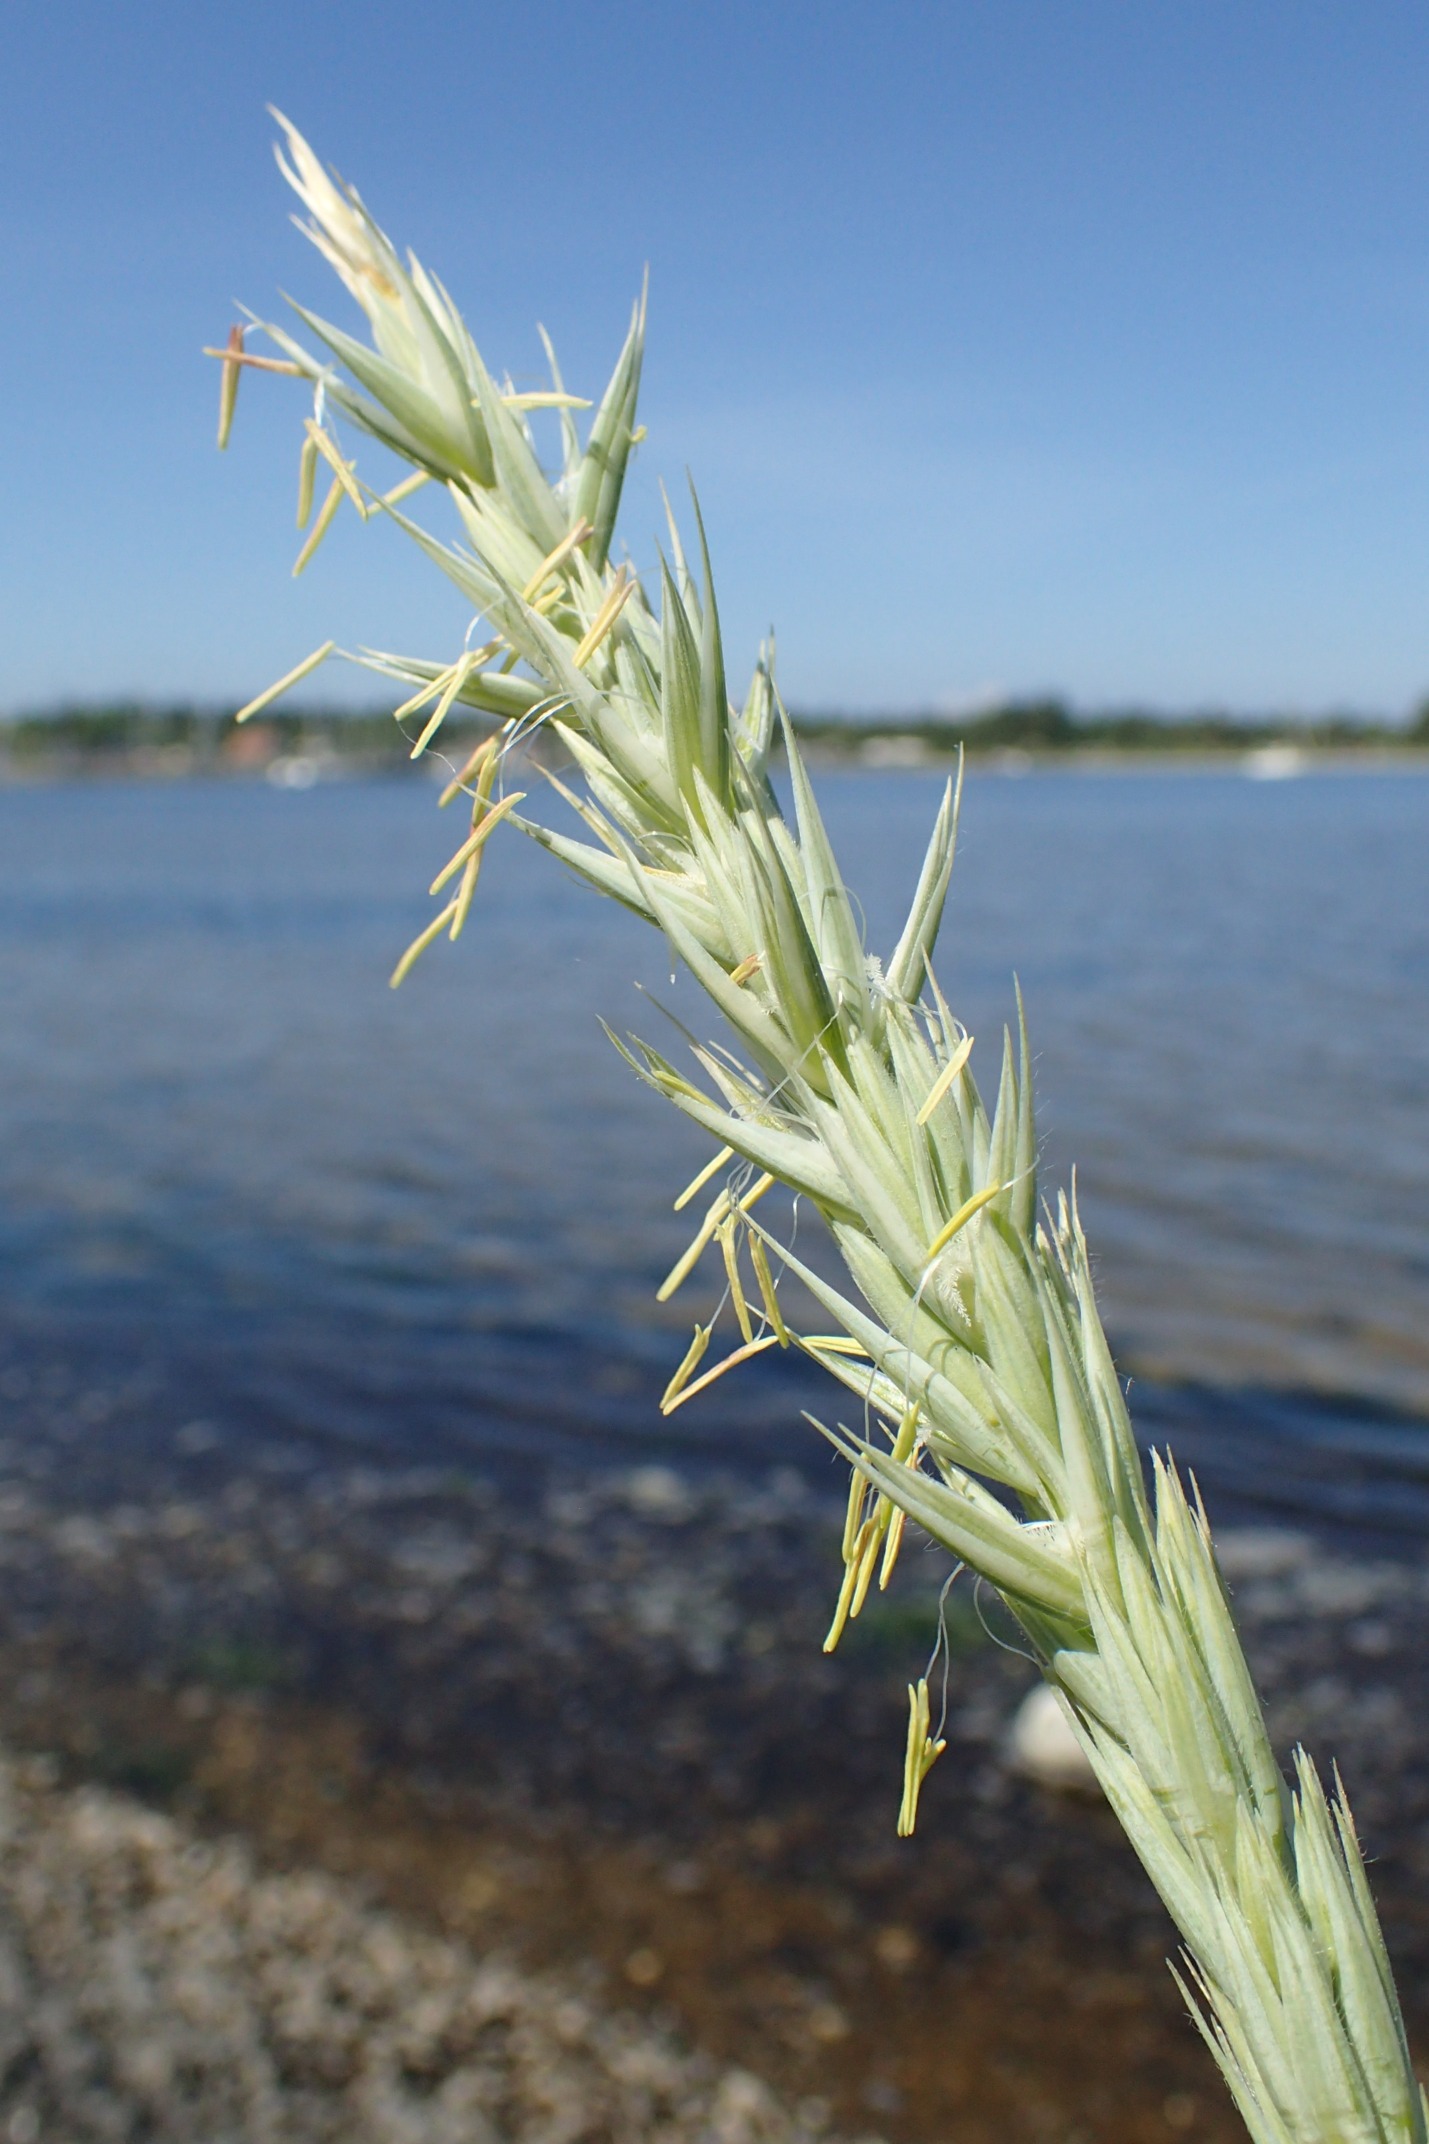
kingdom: Plantae
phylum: Tracheophyta
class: Liliopsida
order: Poales
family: Poaceae
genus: Leymus
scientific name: Leymus arenarius
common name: Marehalm
